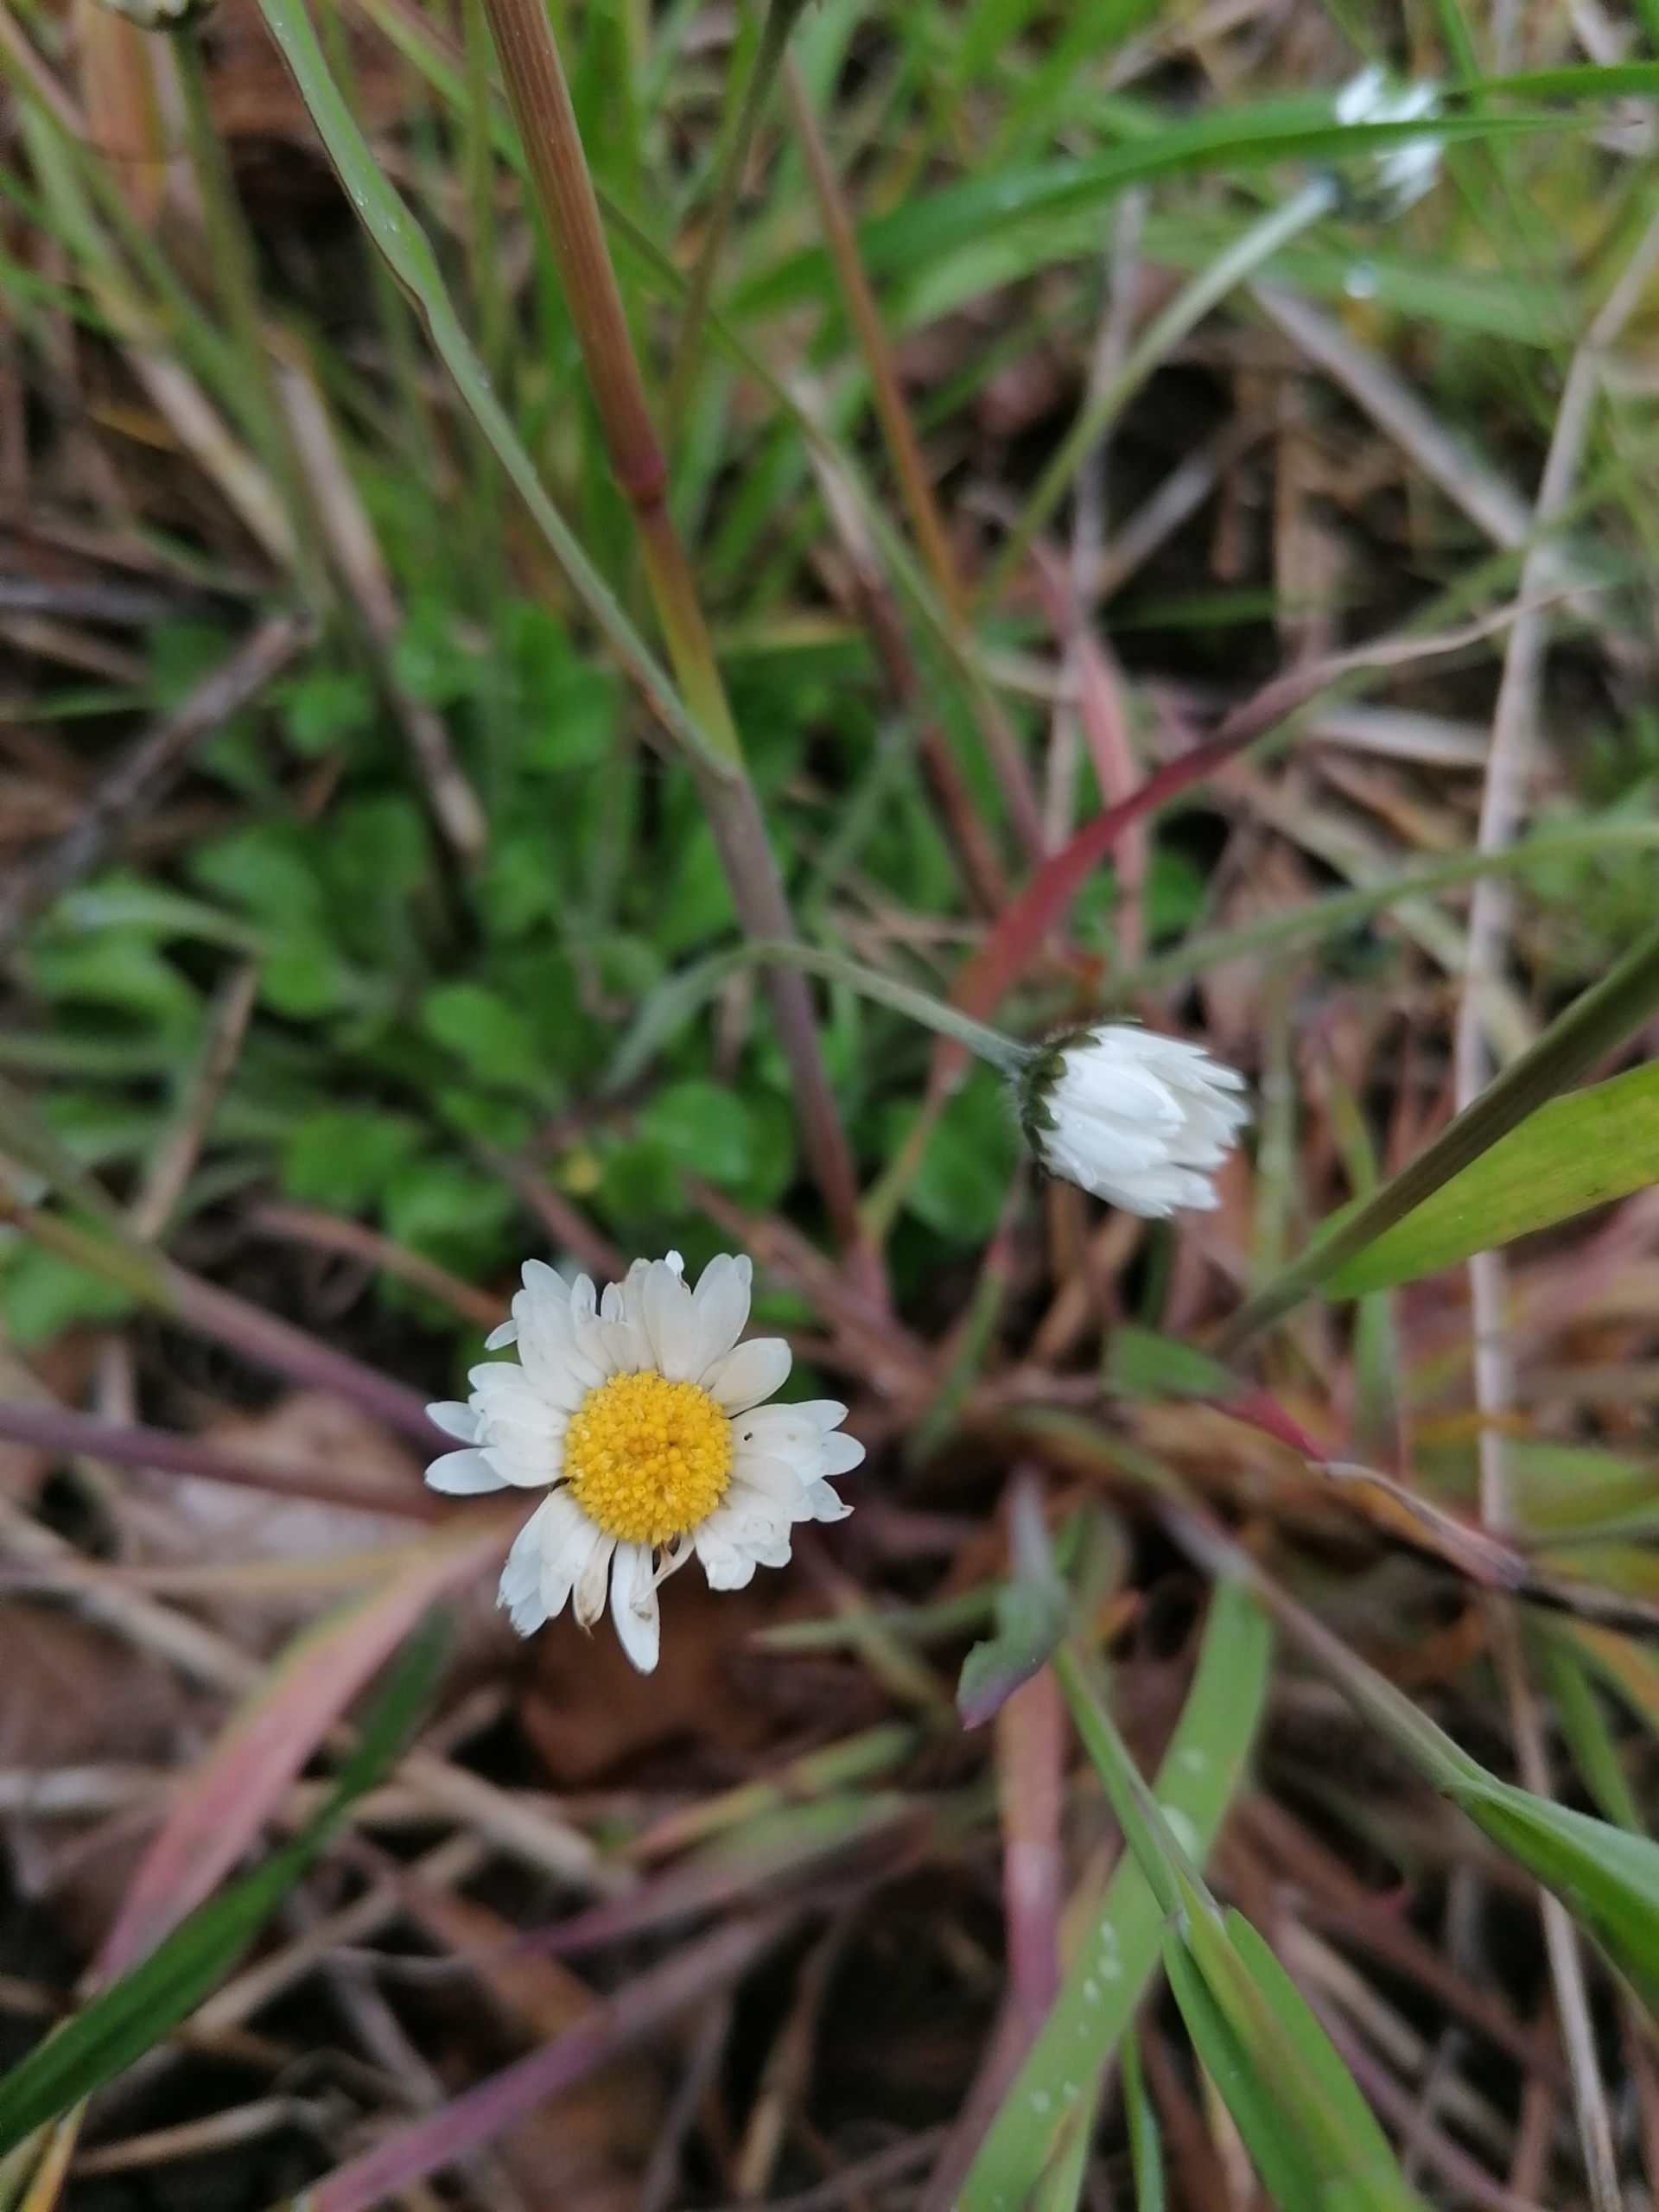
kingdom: Plantae
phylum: Tracheophyta
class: Magnoliopsida
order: Asterales
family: Asteraceae
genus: Bellis
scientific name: Bellis perennis
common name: Tusindfryd
